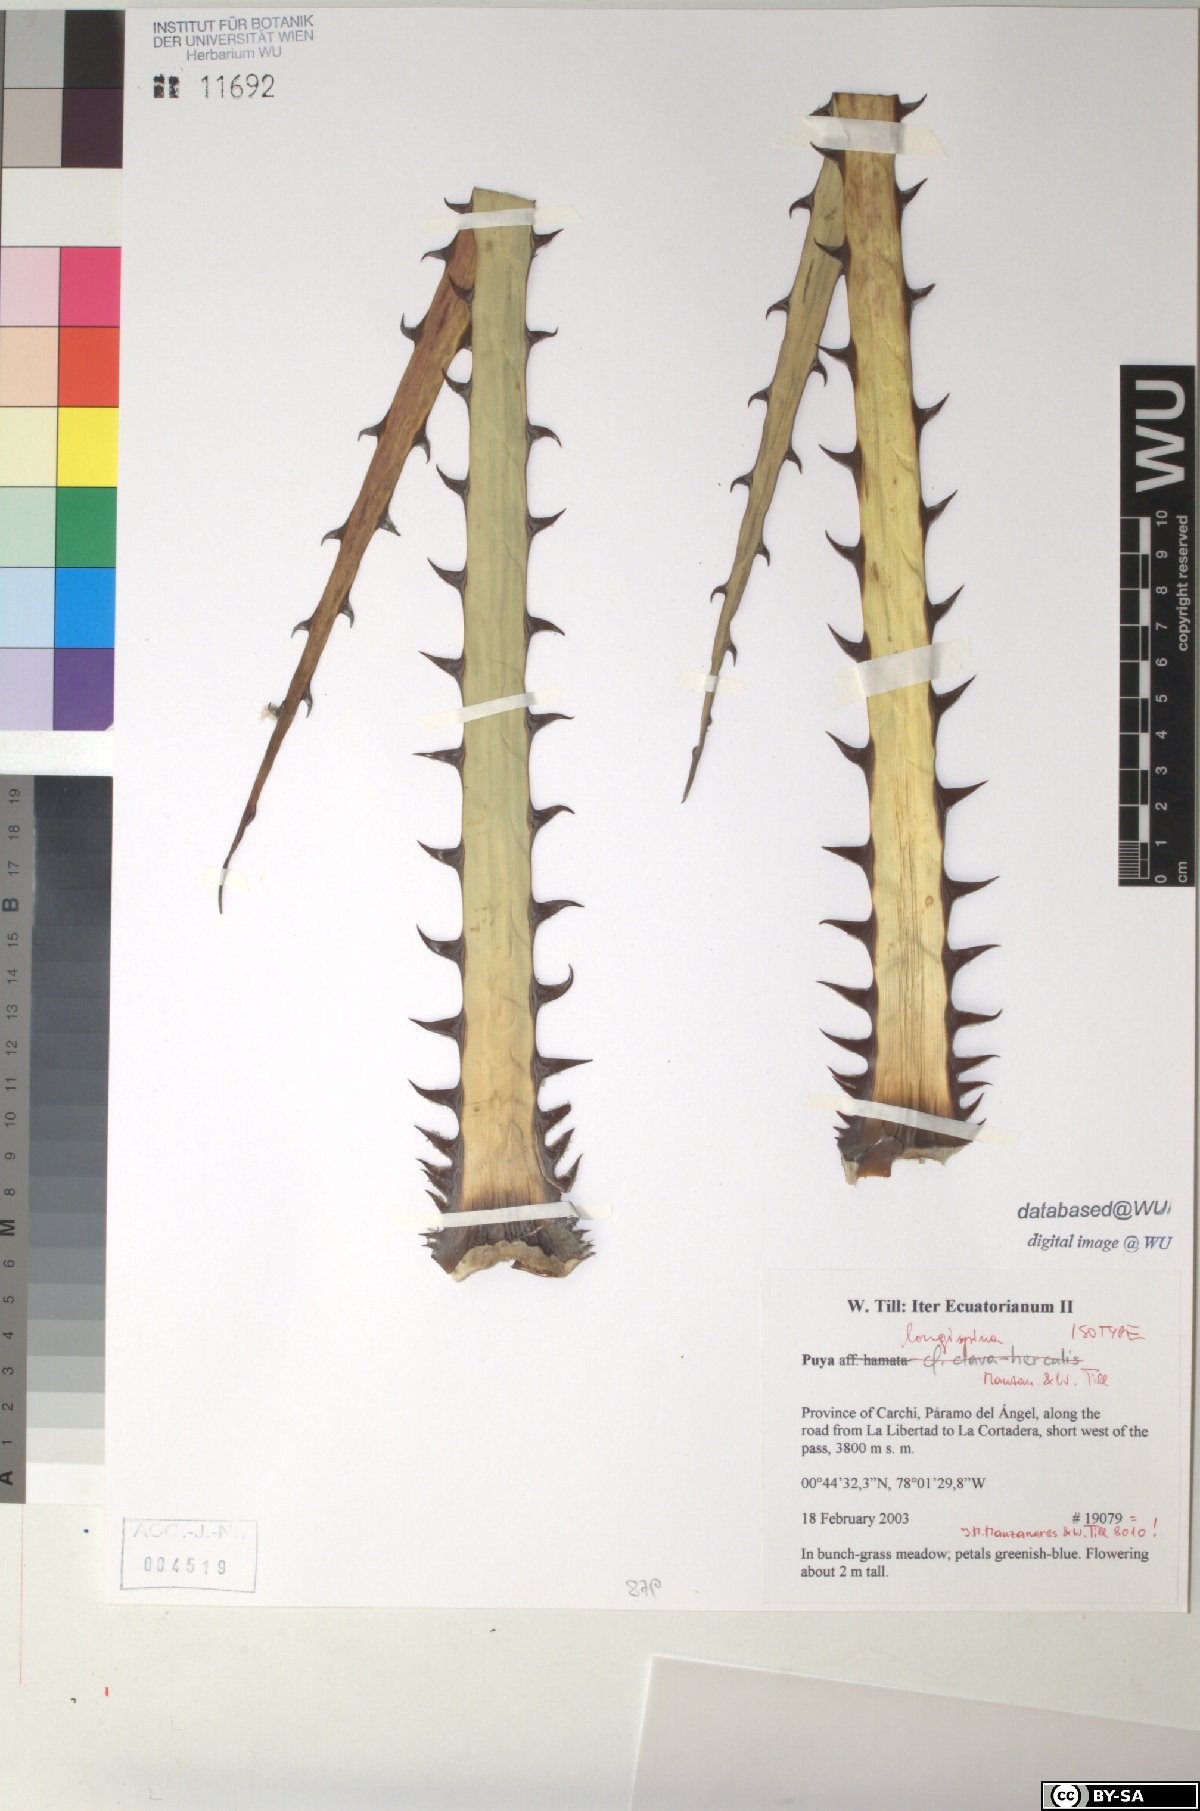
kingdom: Plantae
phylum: Tracheophyta
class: Liliopsida
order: Poales
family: Bromeliaceae
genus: Puya
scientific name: Puya longispina
